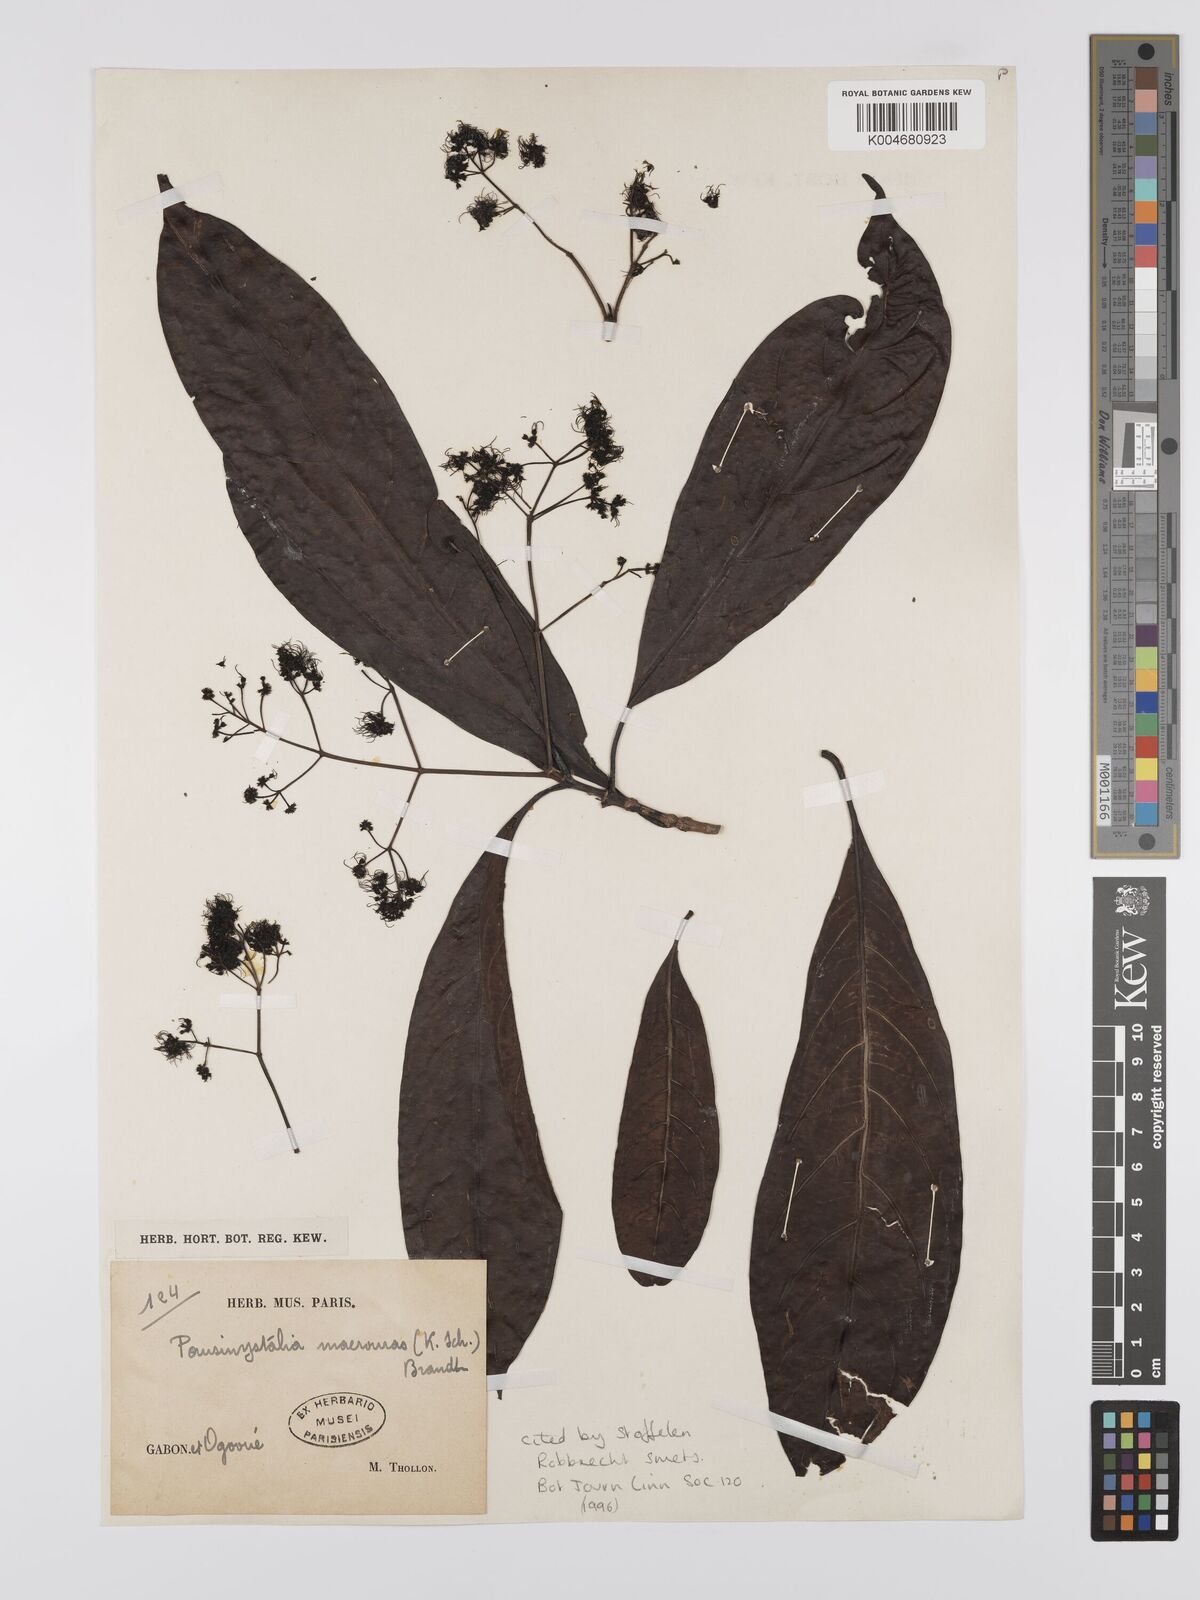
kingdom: Plantae
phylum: Tracheophyta
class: Magnoliopsida
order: Gentianales
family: Rubiaceae
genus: Corynanthe
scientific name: Corynanthe macroceras
